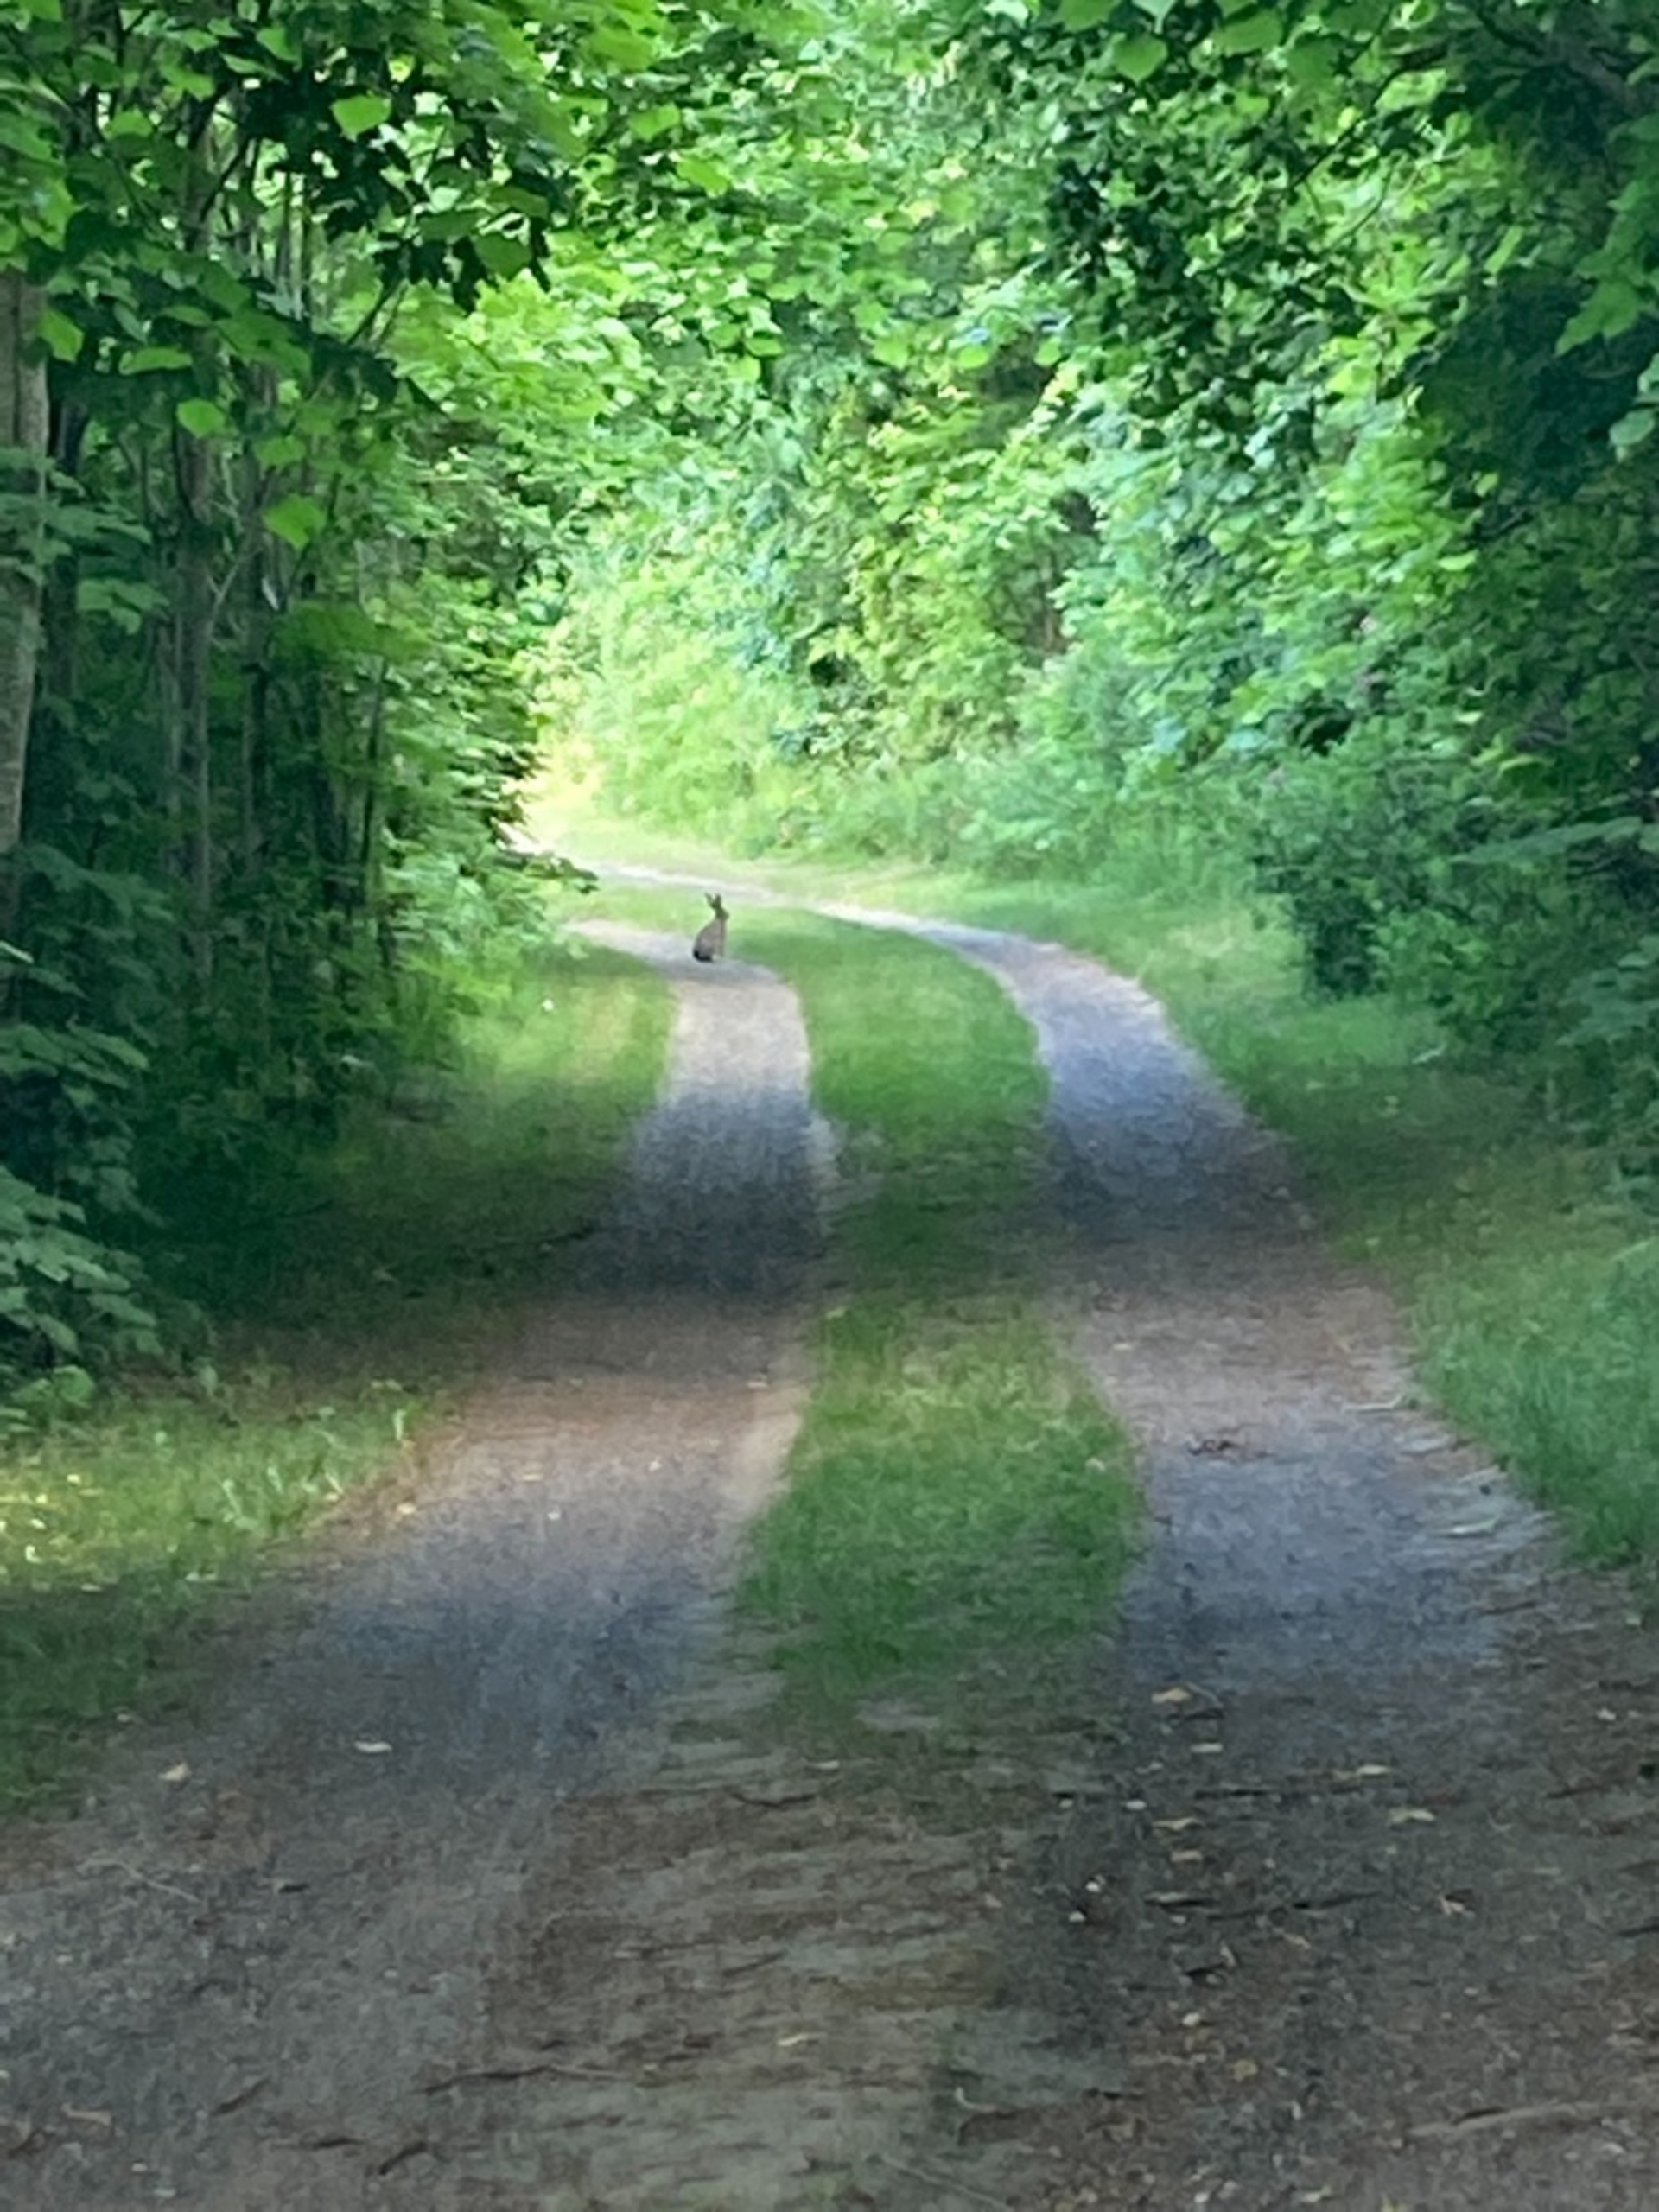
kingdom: Animalia
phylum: Chordata
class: Mammalia
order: Lagomorpha
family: Leporidae
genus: Lepus
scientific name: Lepus europaeus
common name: Hare
